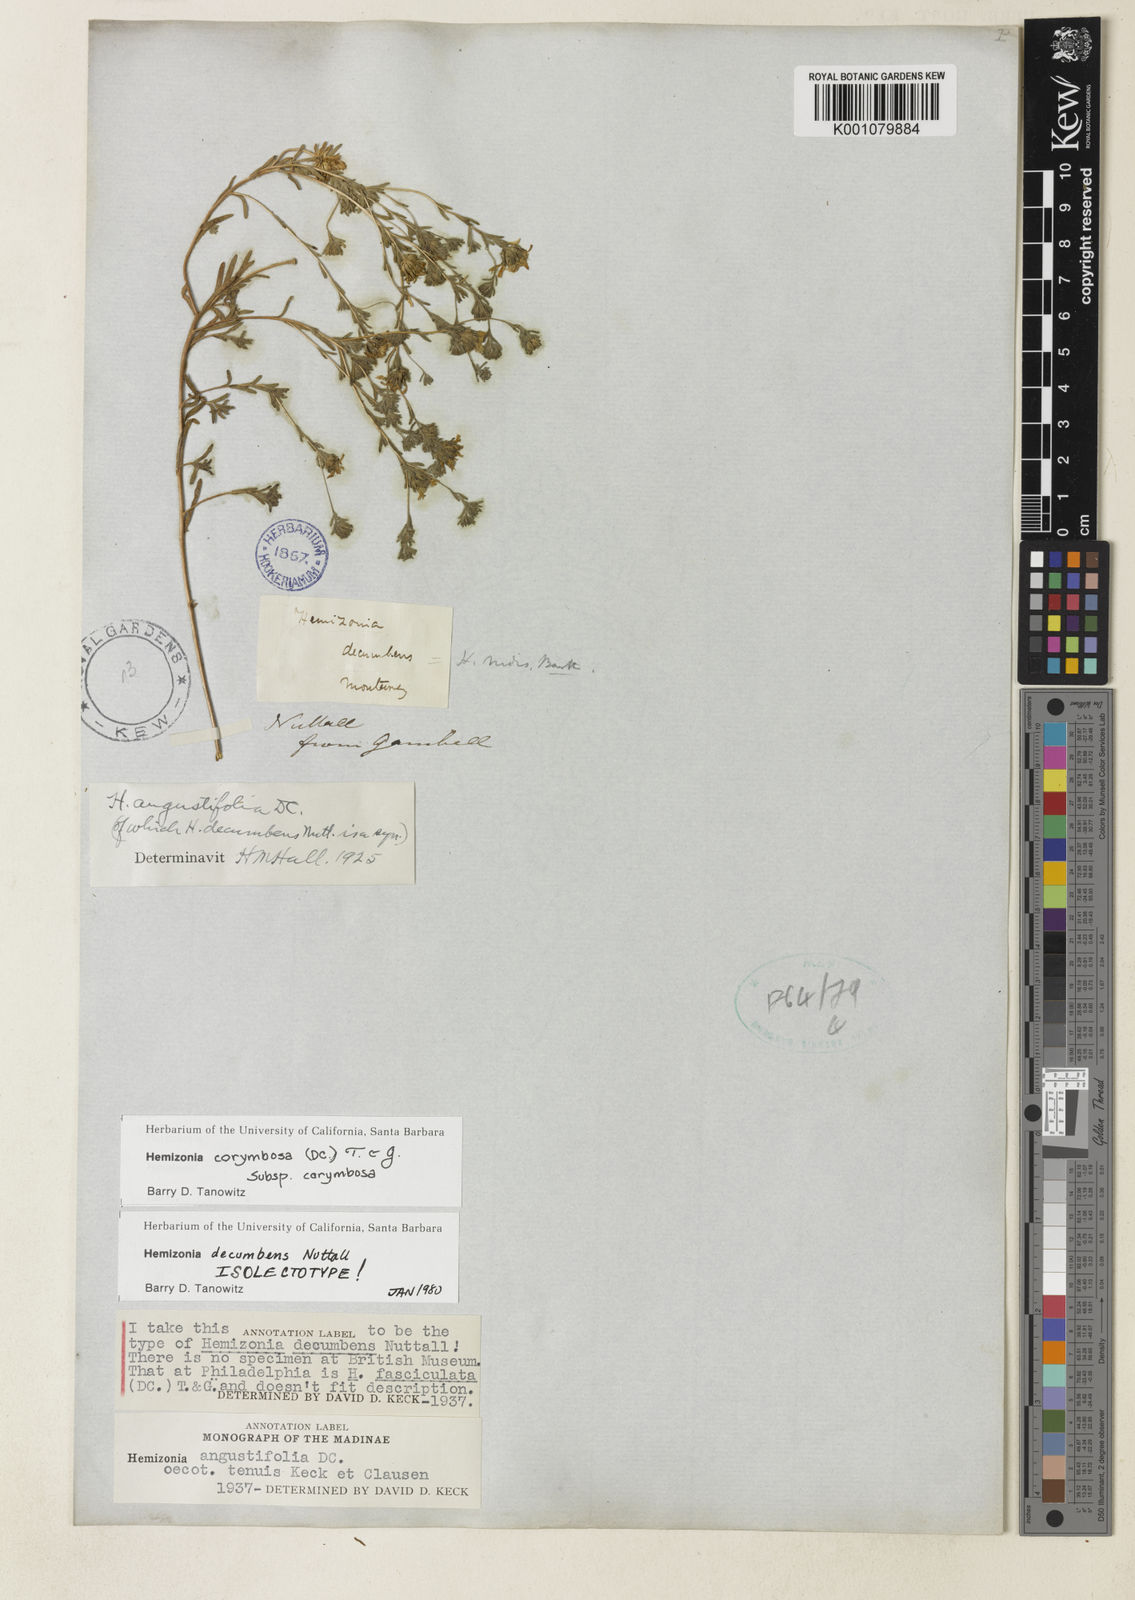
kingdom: Plantae
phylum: Tracheophyta
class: Magnoliopsida
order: Asterales
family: Asteraceae
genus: Hemizonia
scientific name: Hemizonia congesta
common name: Hayfield tarweed
